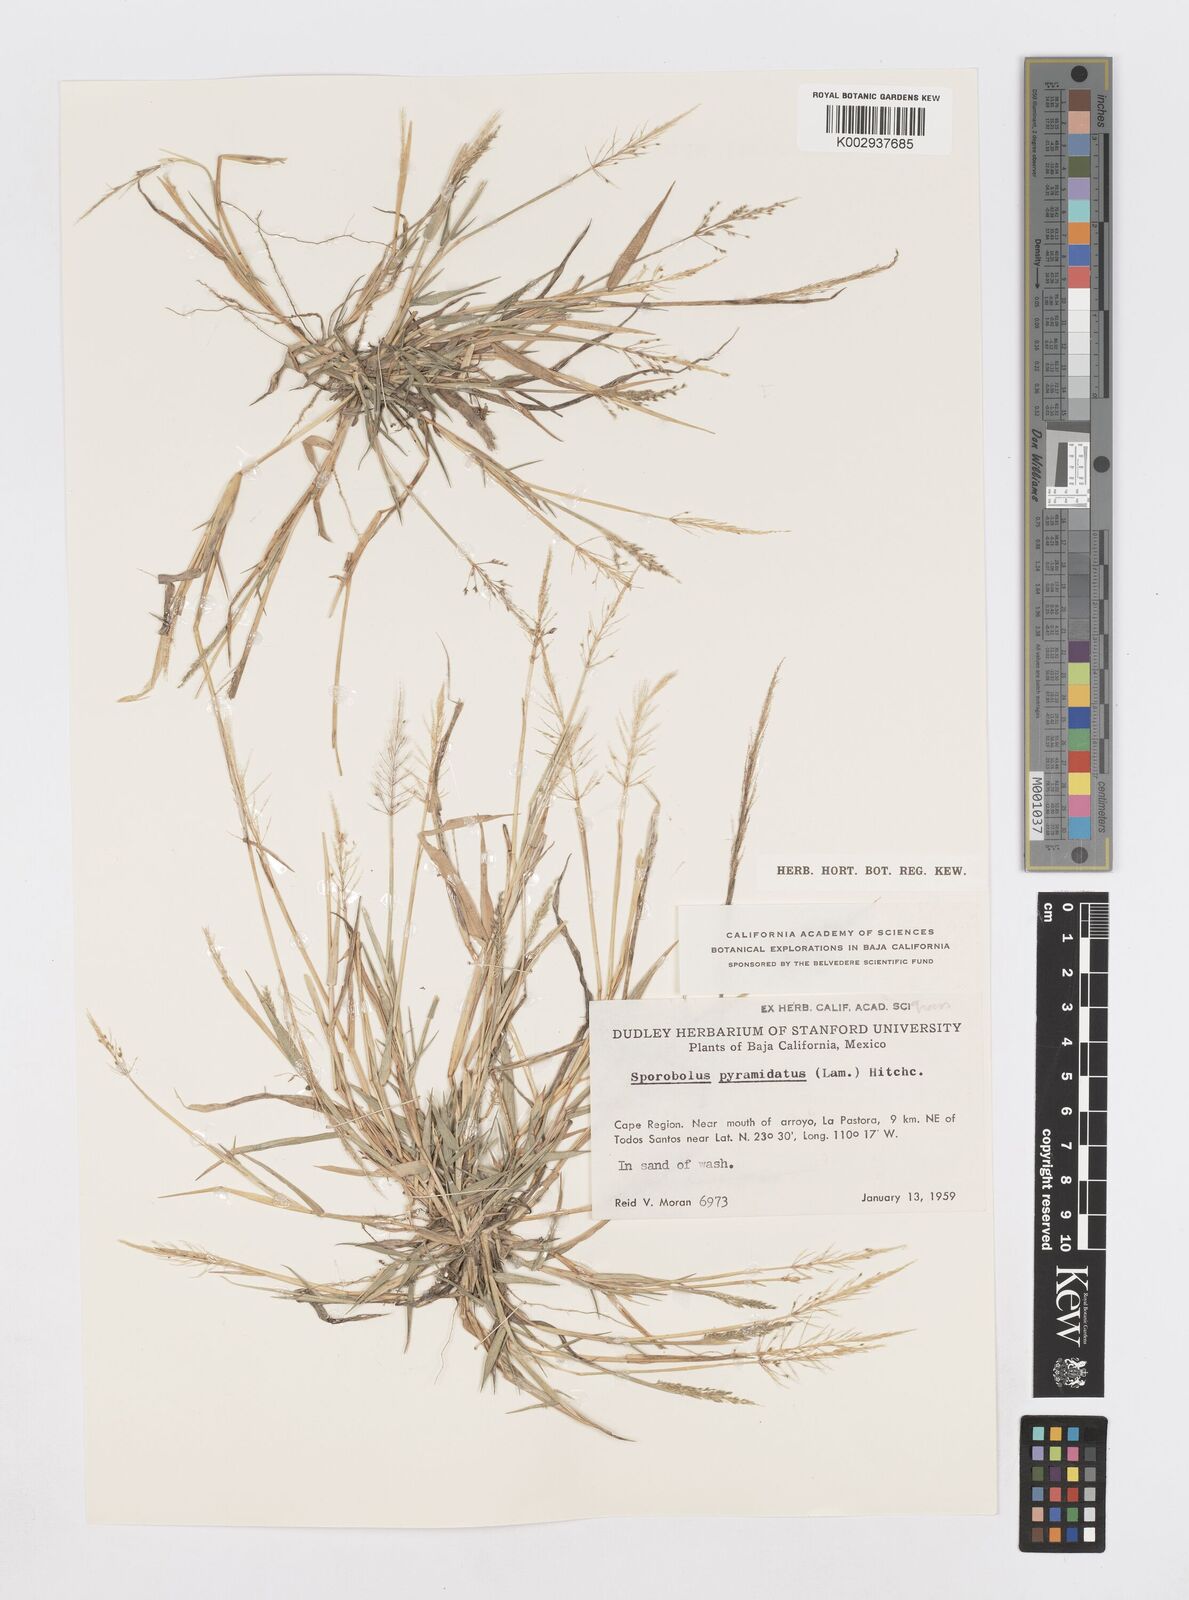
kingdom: Plantae
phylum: Tracheophyta
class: Liliopsida
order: Poales
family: Poaceae
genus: Sporobolus
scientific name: Sporobolus pyramidatus
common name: Whorled dropseed
